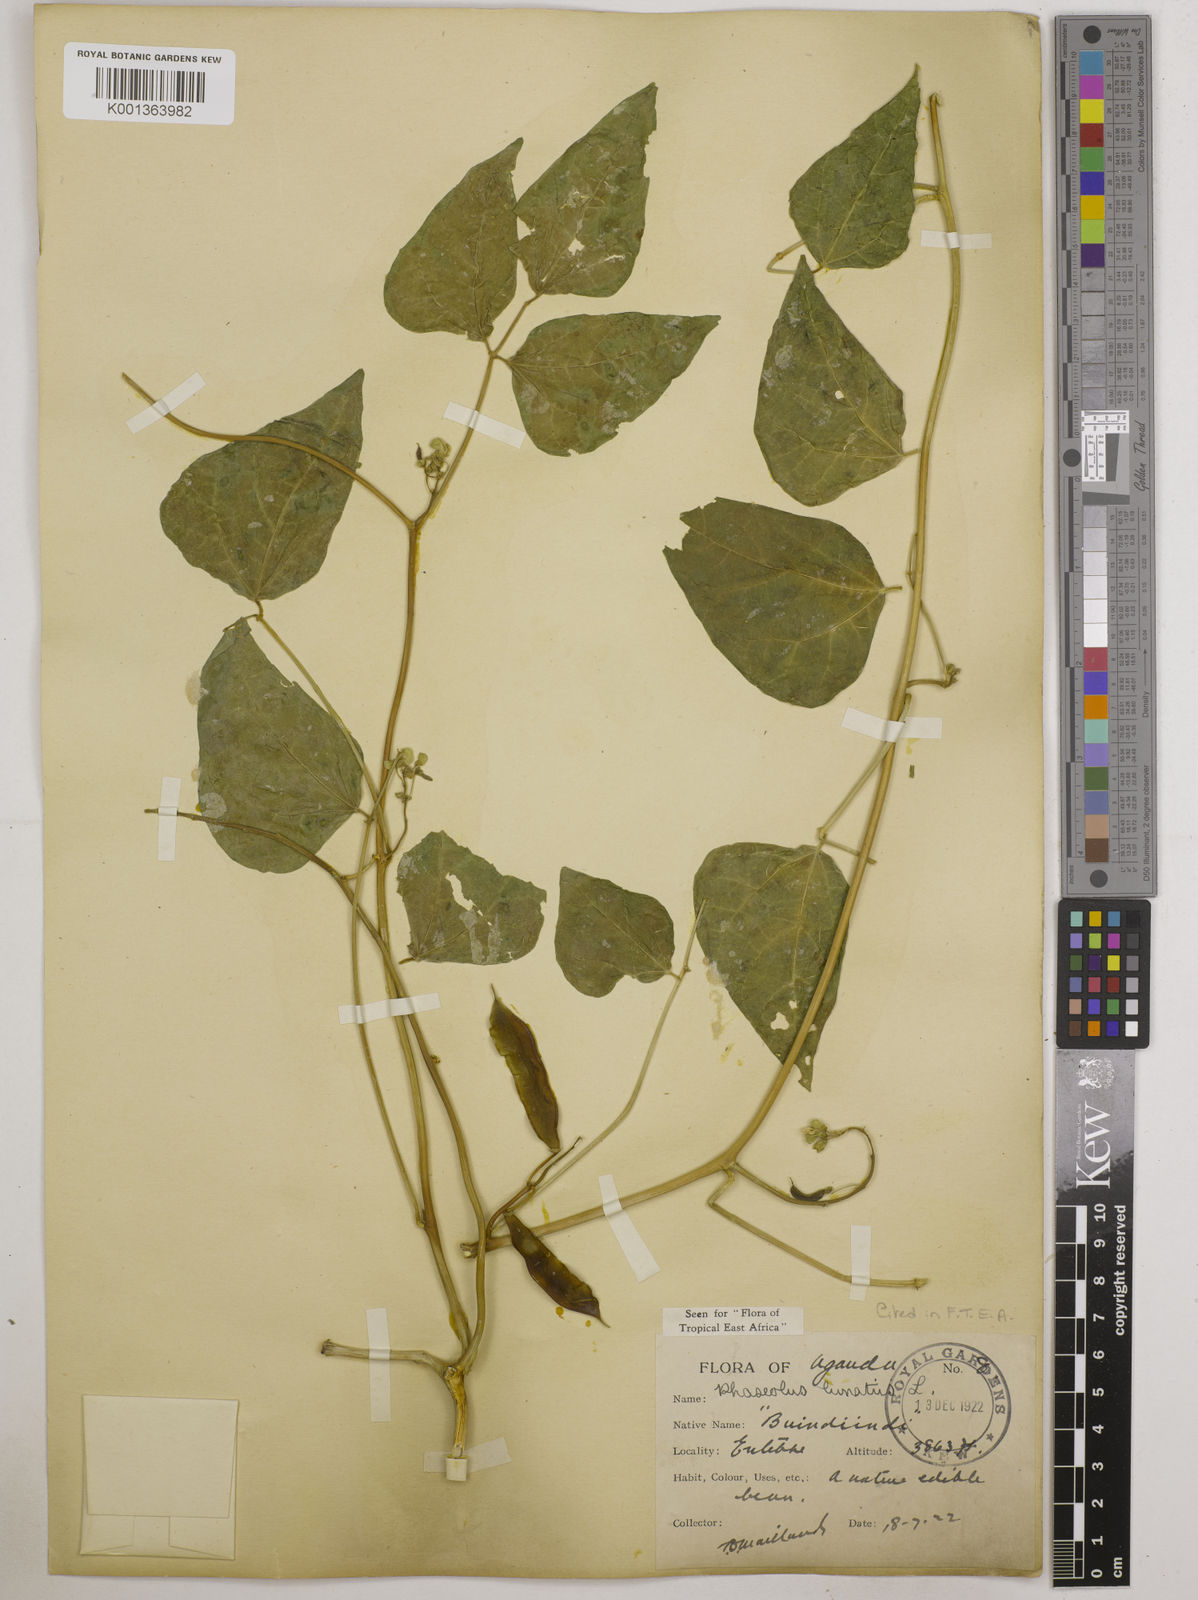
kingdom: Plantae
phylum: Tracheophyta
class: Magnoliopsida
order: Fabales
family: Fabaceae
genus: Phaseolus
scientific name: Phaseolus lunatus
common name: Sieva bean
